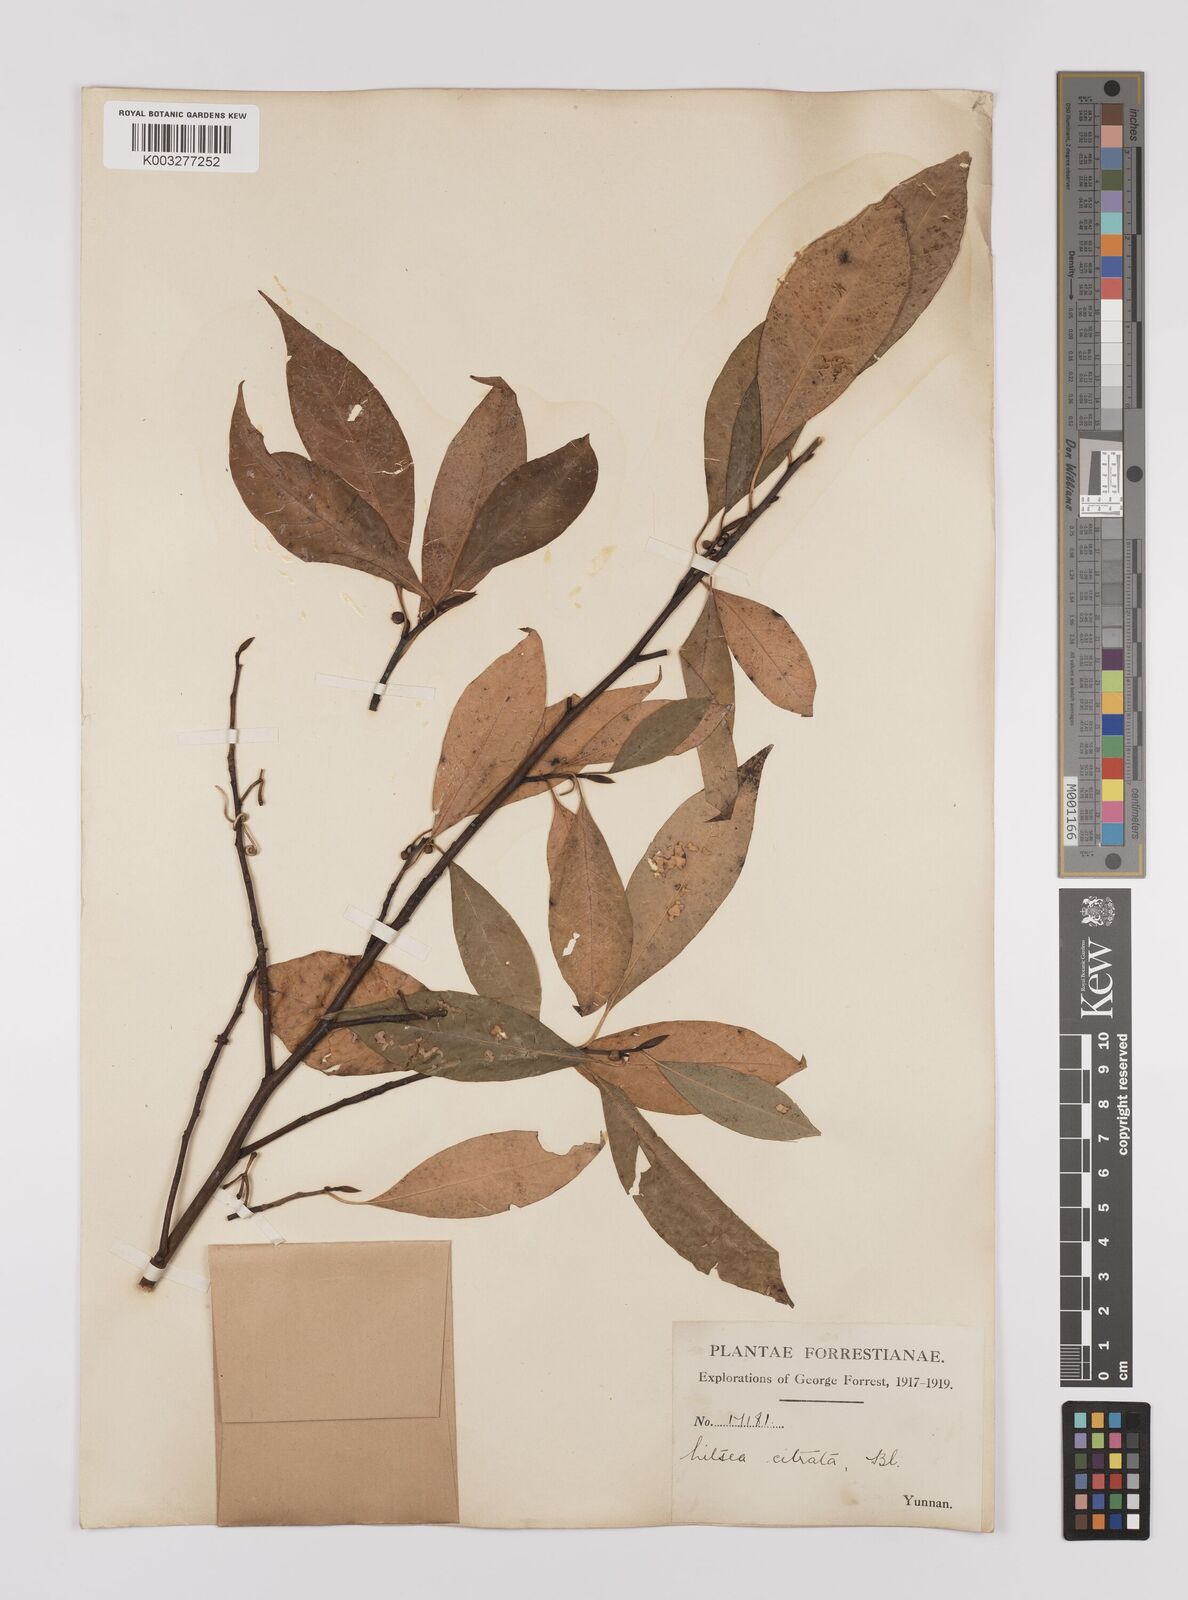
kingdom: Plantae
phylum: Tracheophyta
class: Magnoliopsida
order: Laurales
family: Lauraceae
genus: Litsea
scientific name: Litsea cubeba
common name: Mountain-pepper
